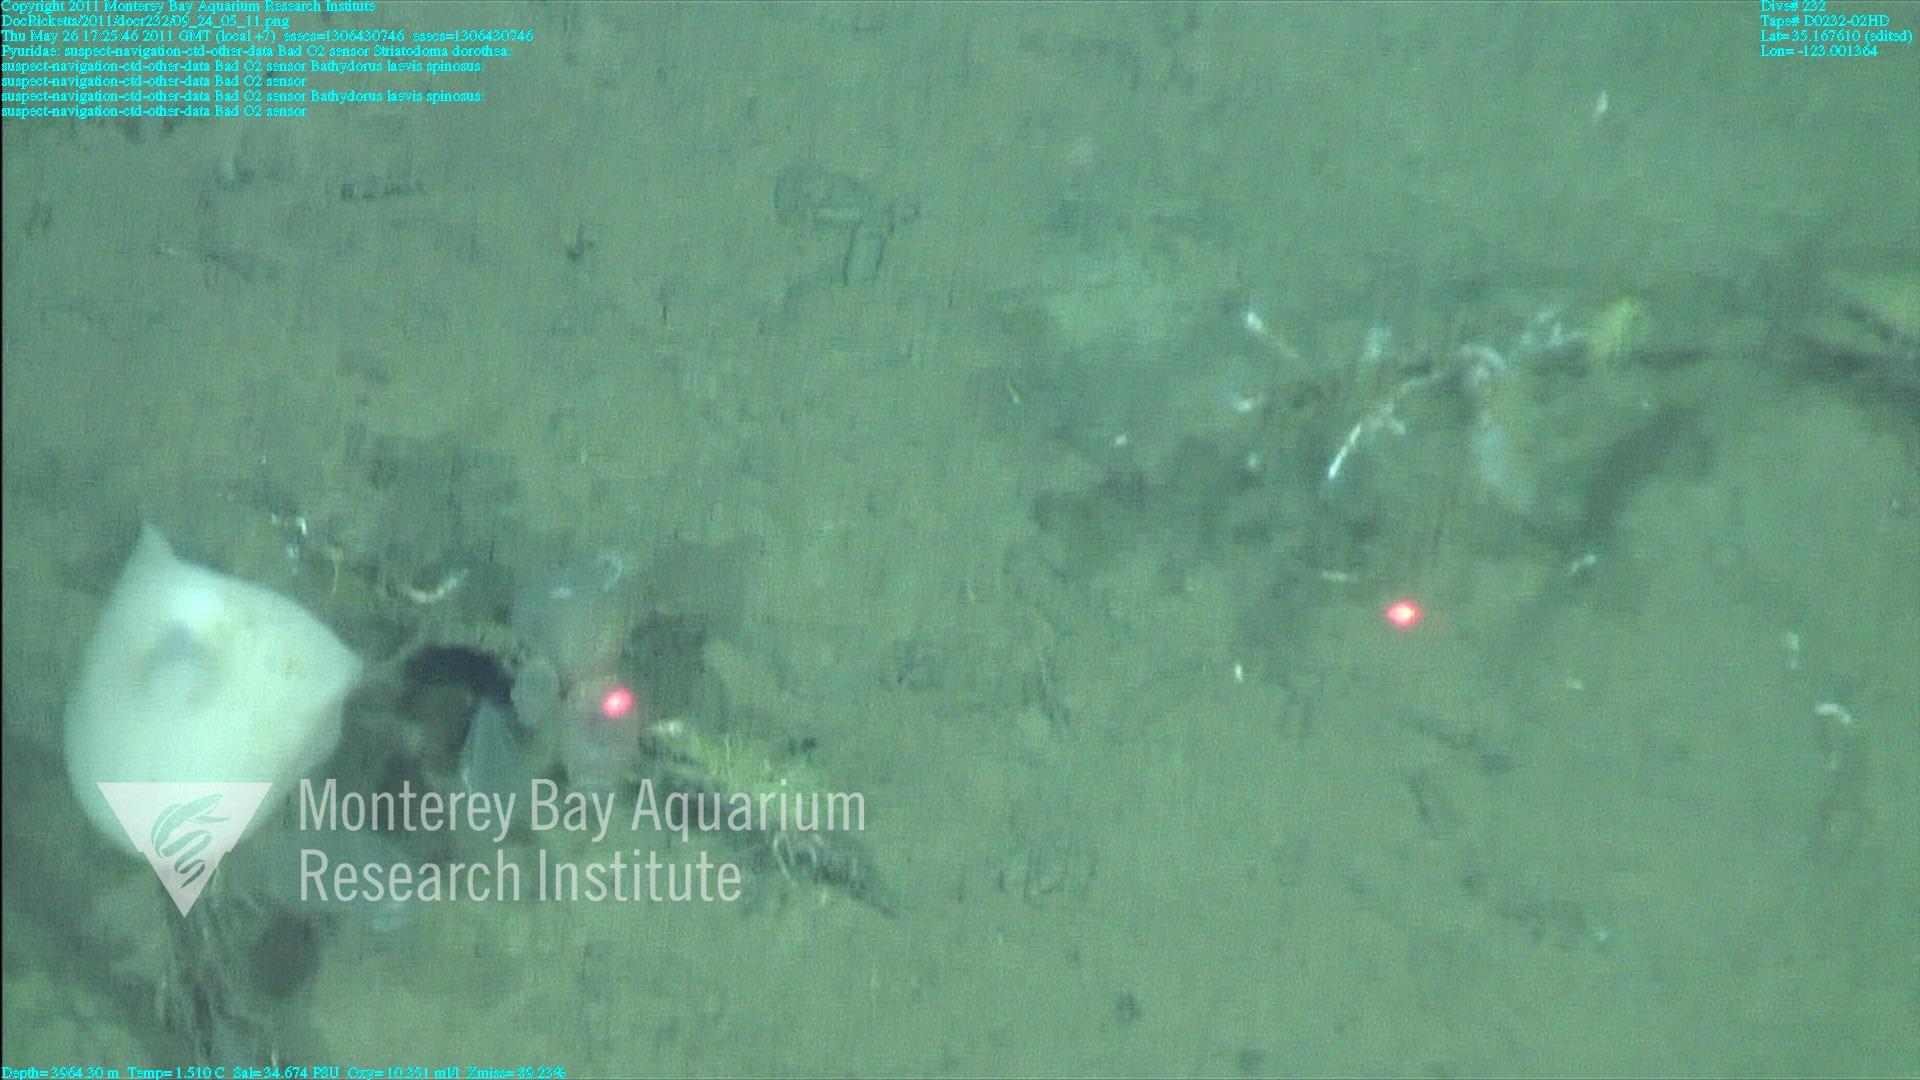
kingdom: Animalia
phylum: Porifera
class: Hexactinellida
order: Lyssacinosida
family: Rossellidae
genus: Bathydorus
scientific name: Bathydorus spinosus
